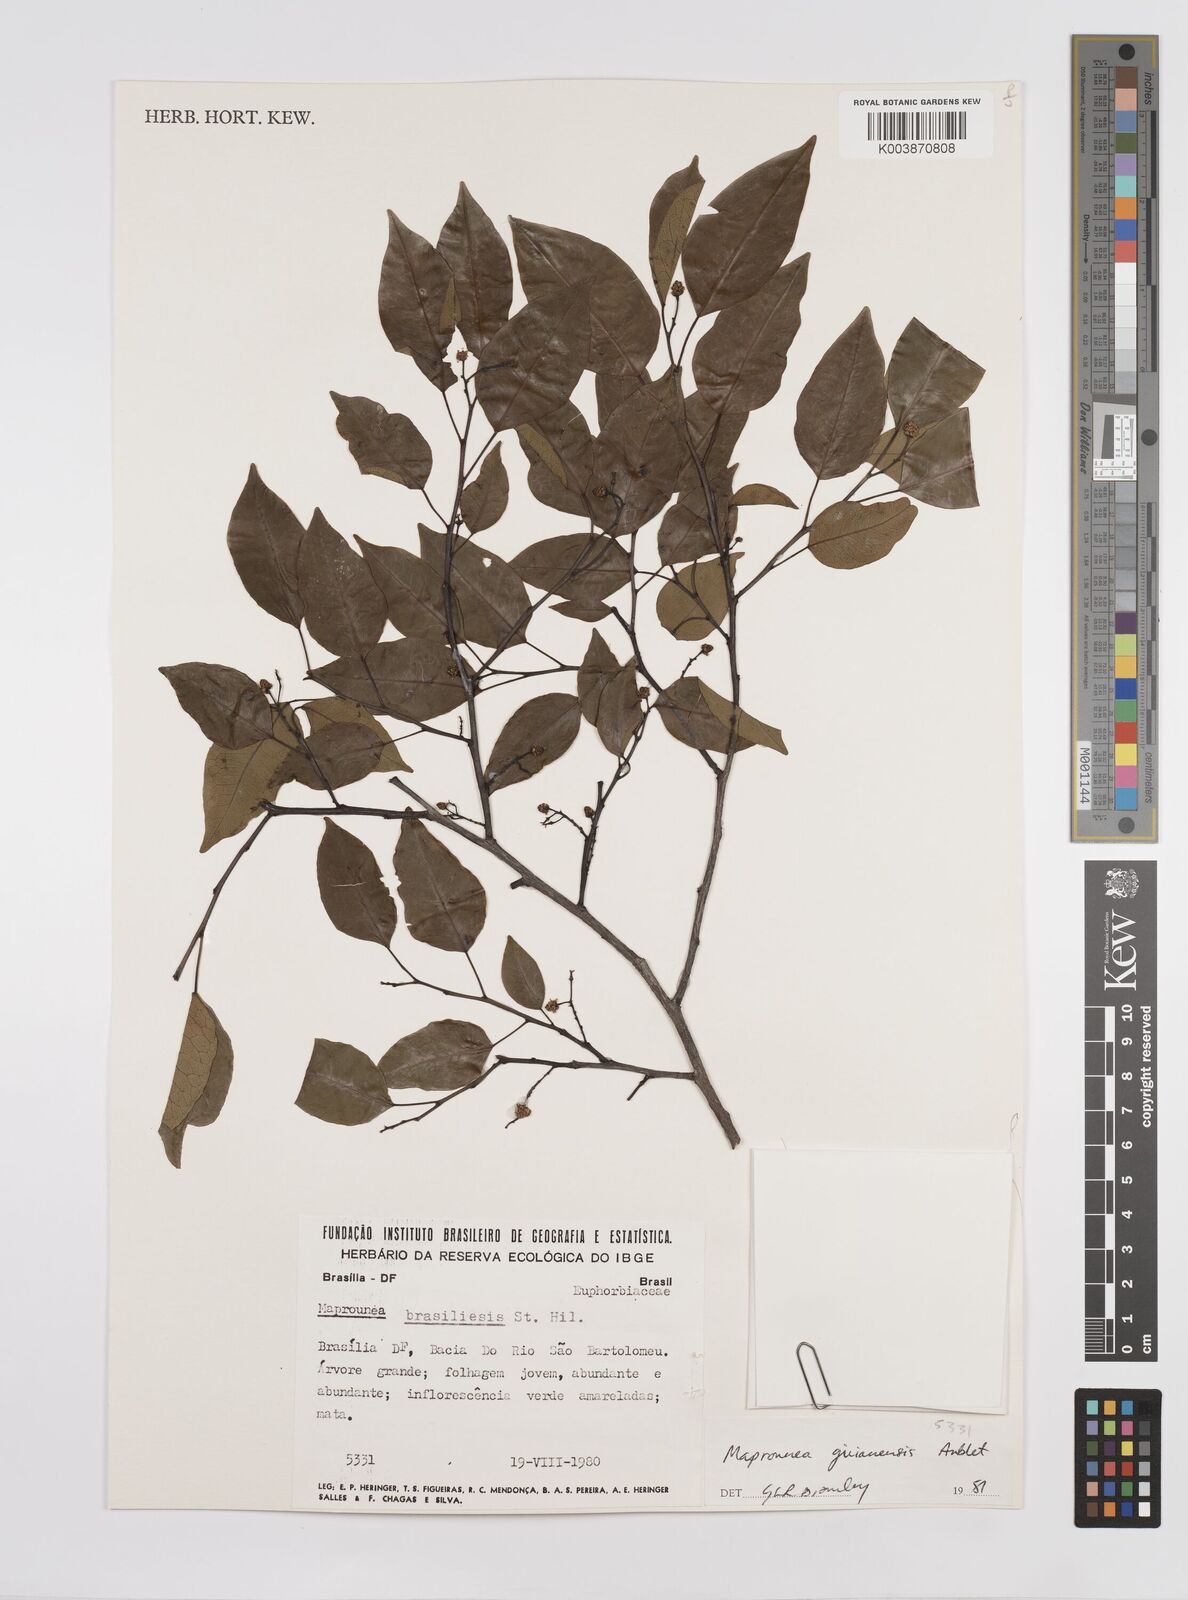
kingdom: Plantae
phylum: Tracheophyta
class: Magnoliopsida
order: Malpighiales
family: Euphorbiaceae
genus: Maprounea
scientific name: Maprounea guianensis
